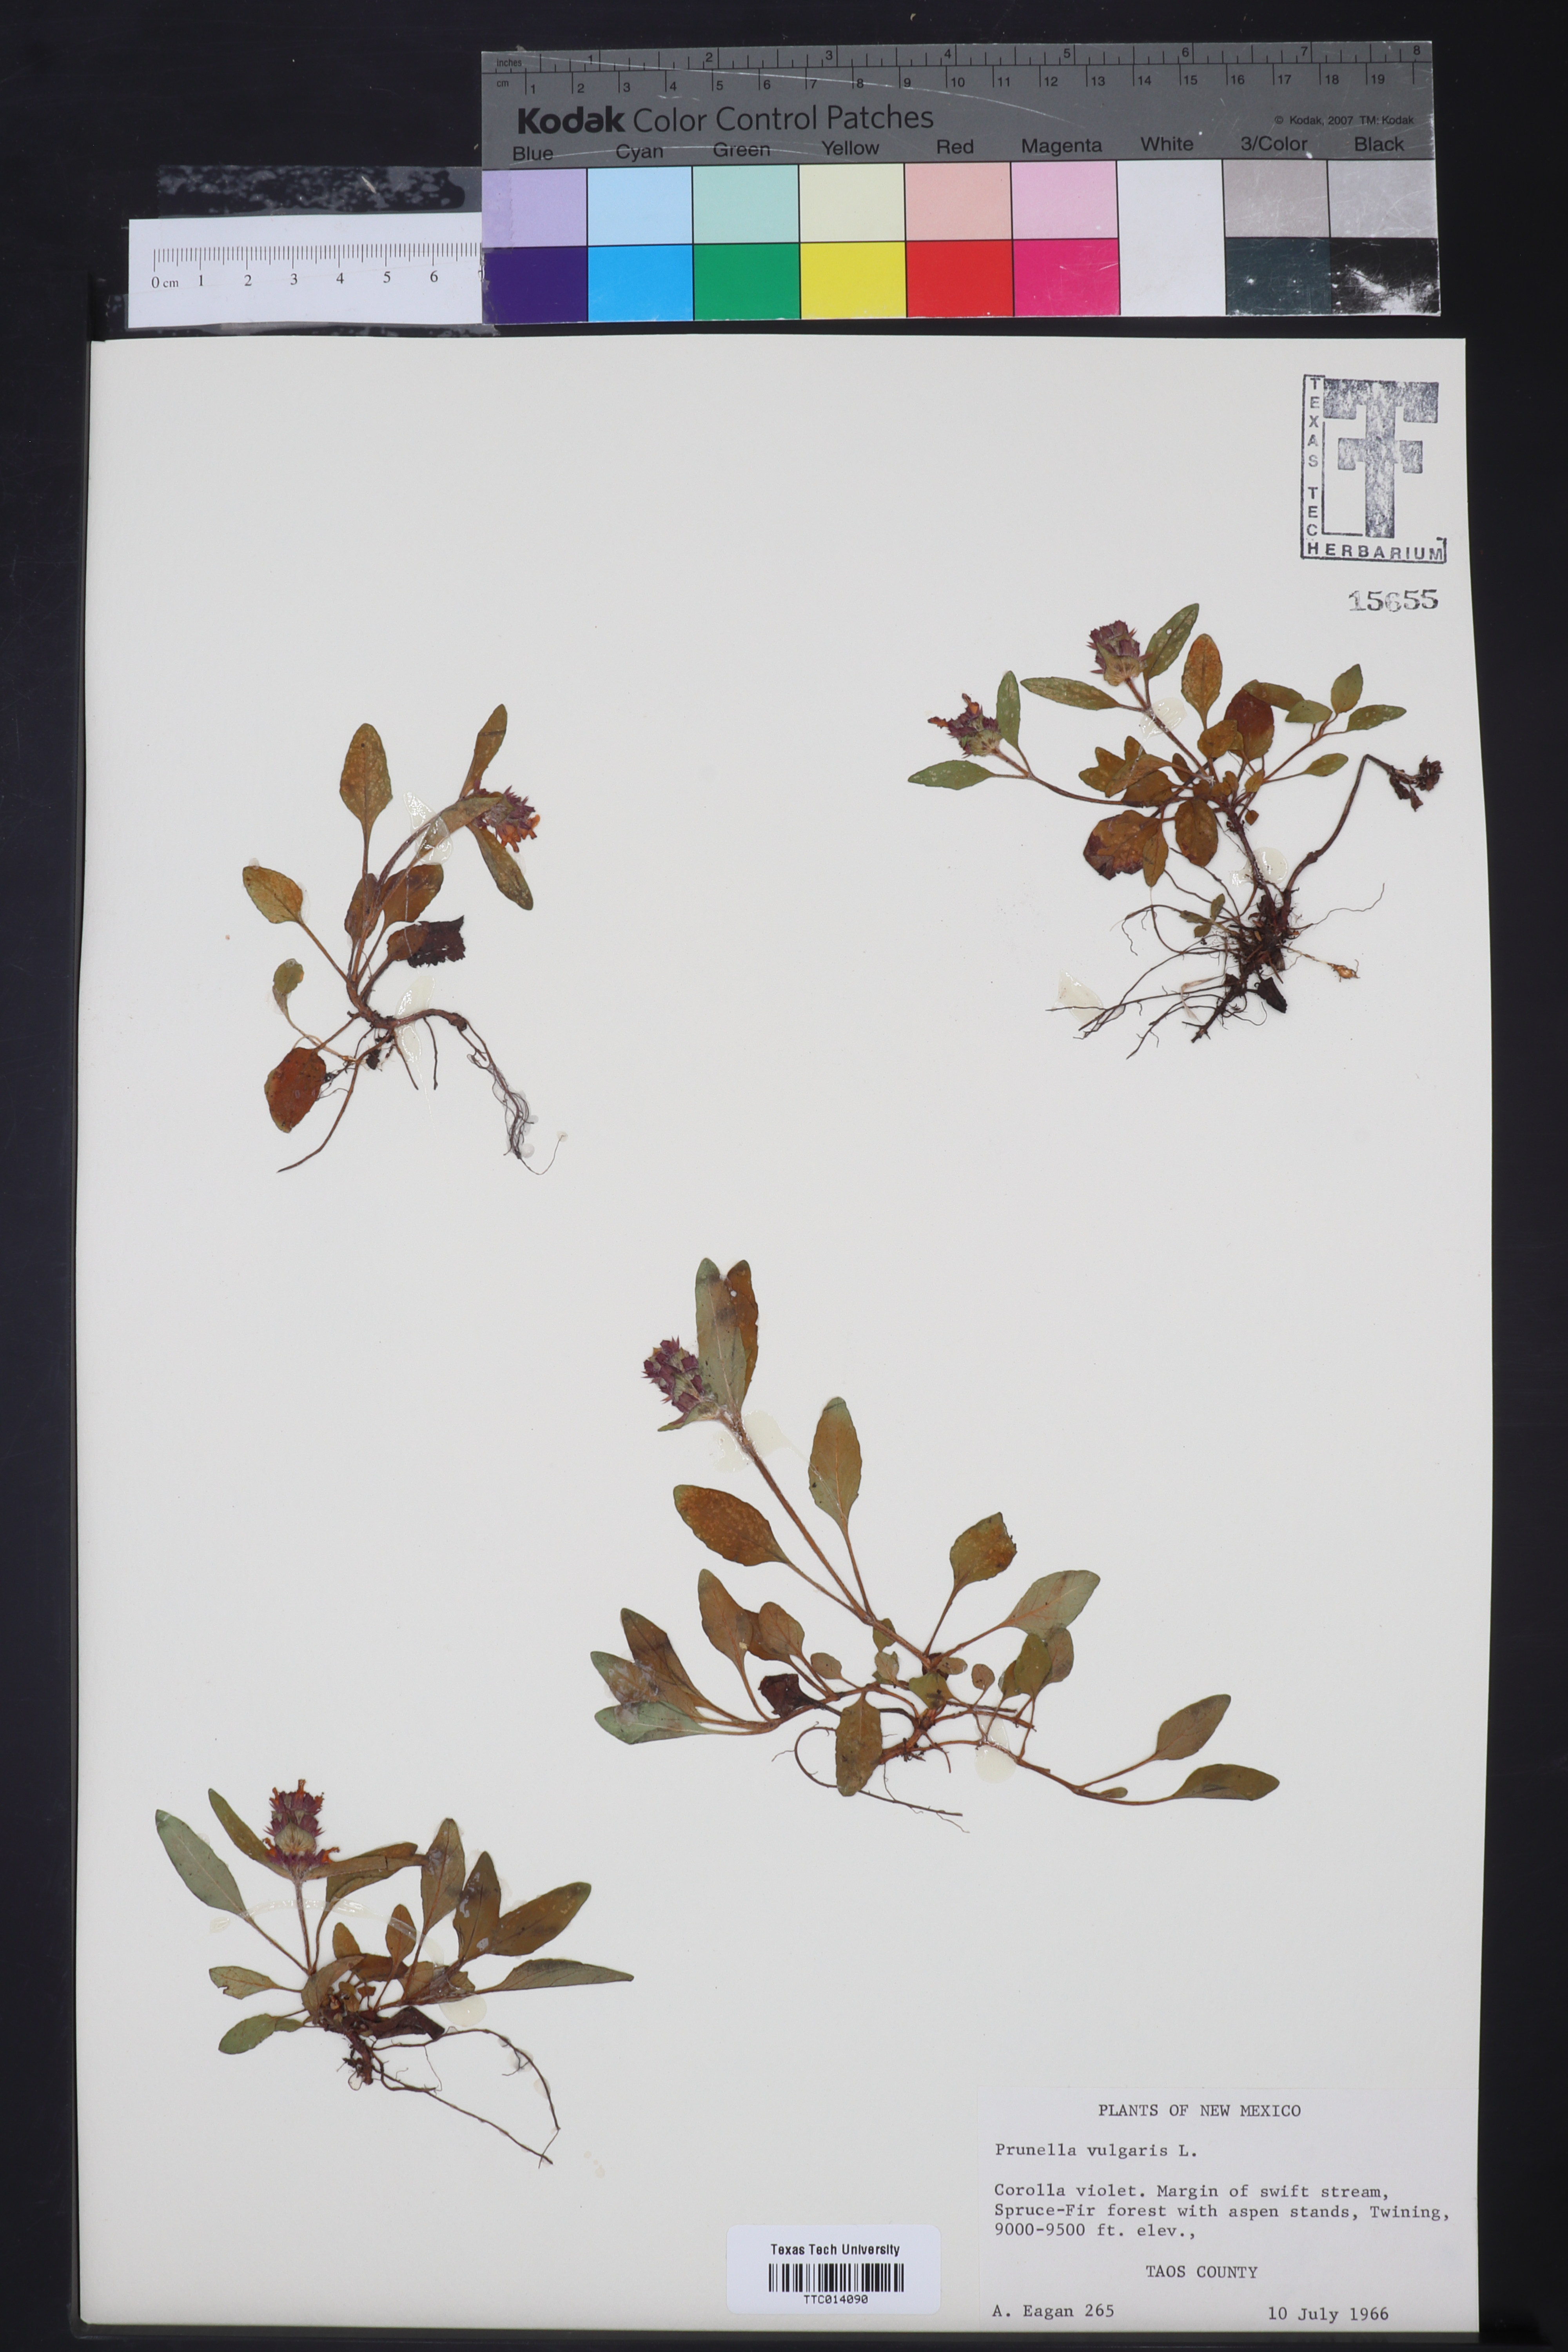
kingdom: Plantae
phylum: Tracheophyta
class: Magnoliopsida
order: Lamiales
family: Lamiaceae
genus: Prunella
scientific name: Prunella vulgaris
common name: Heal-all
